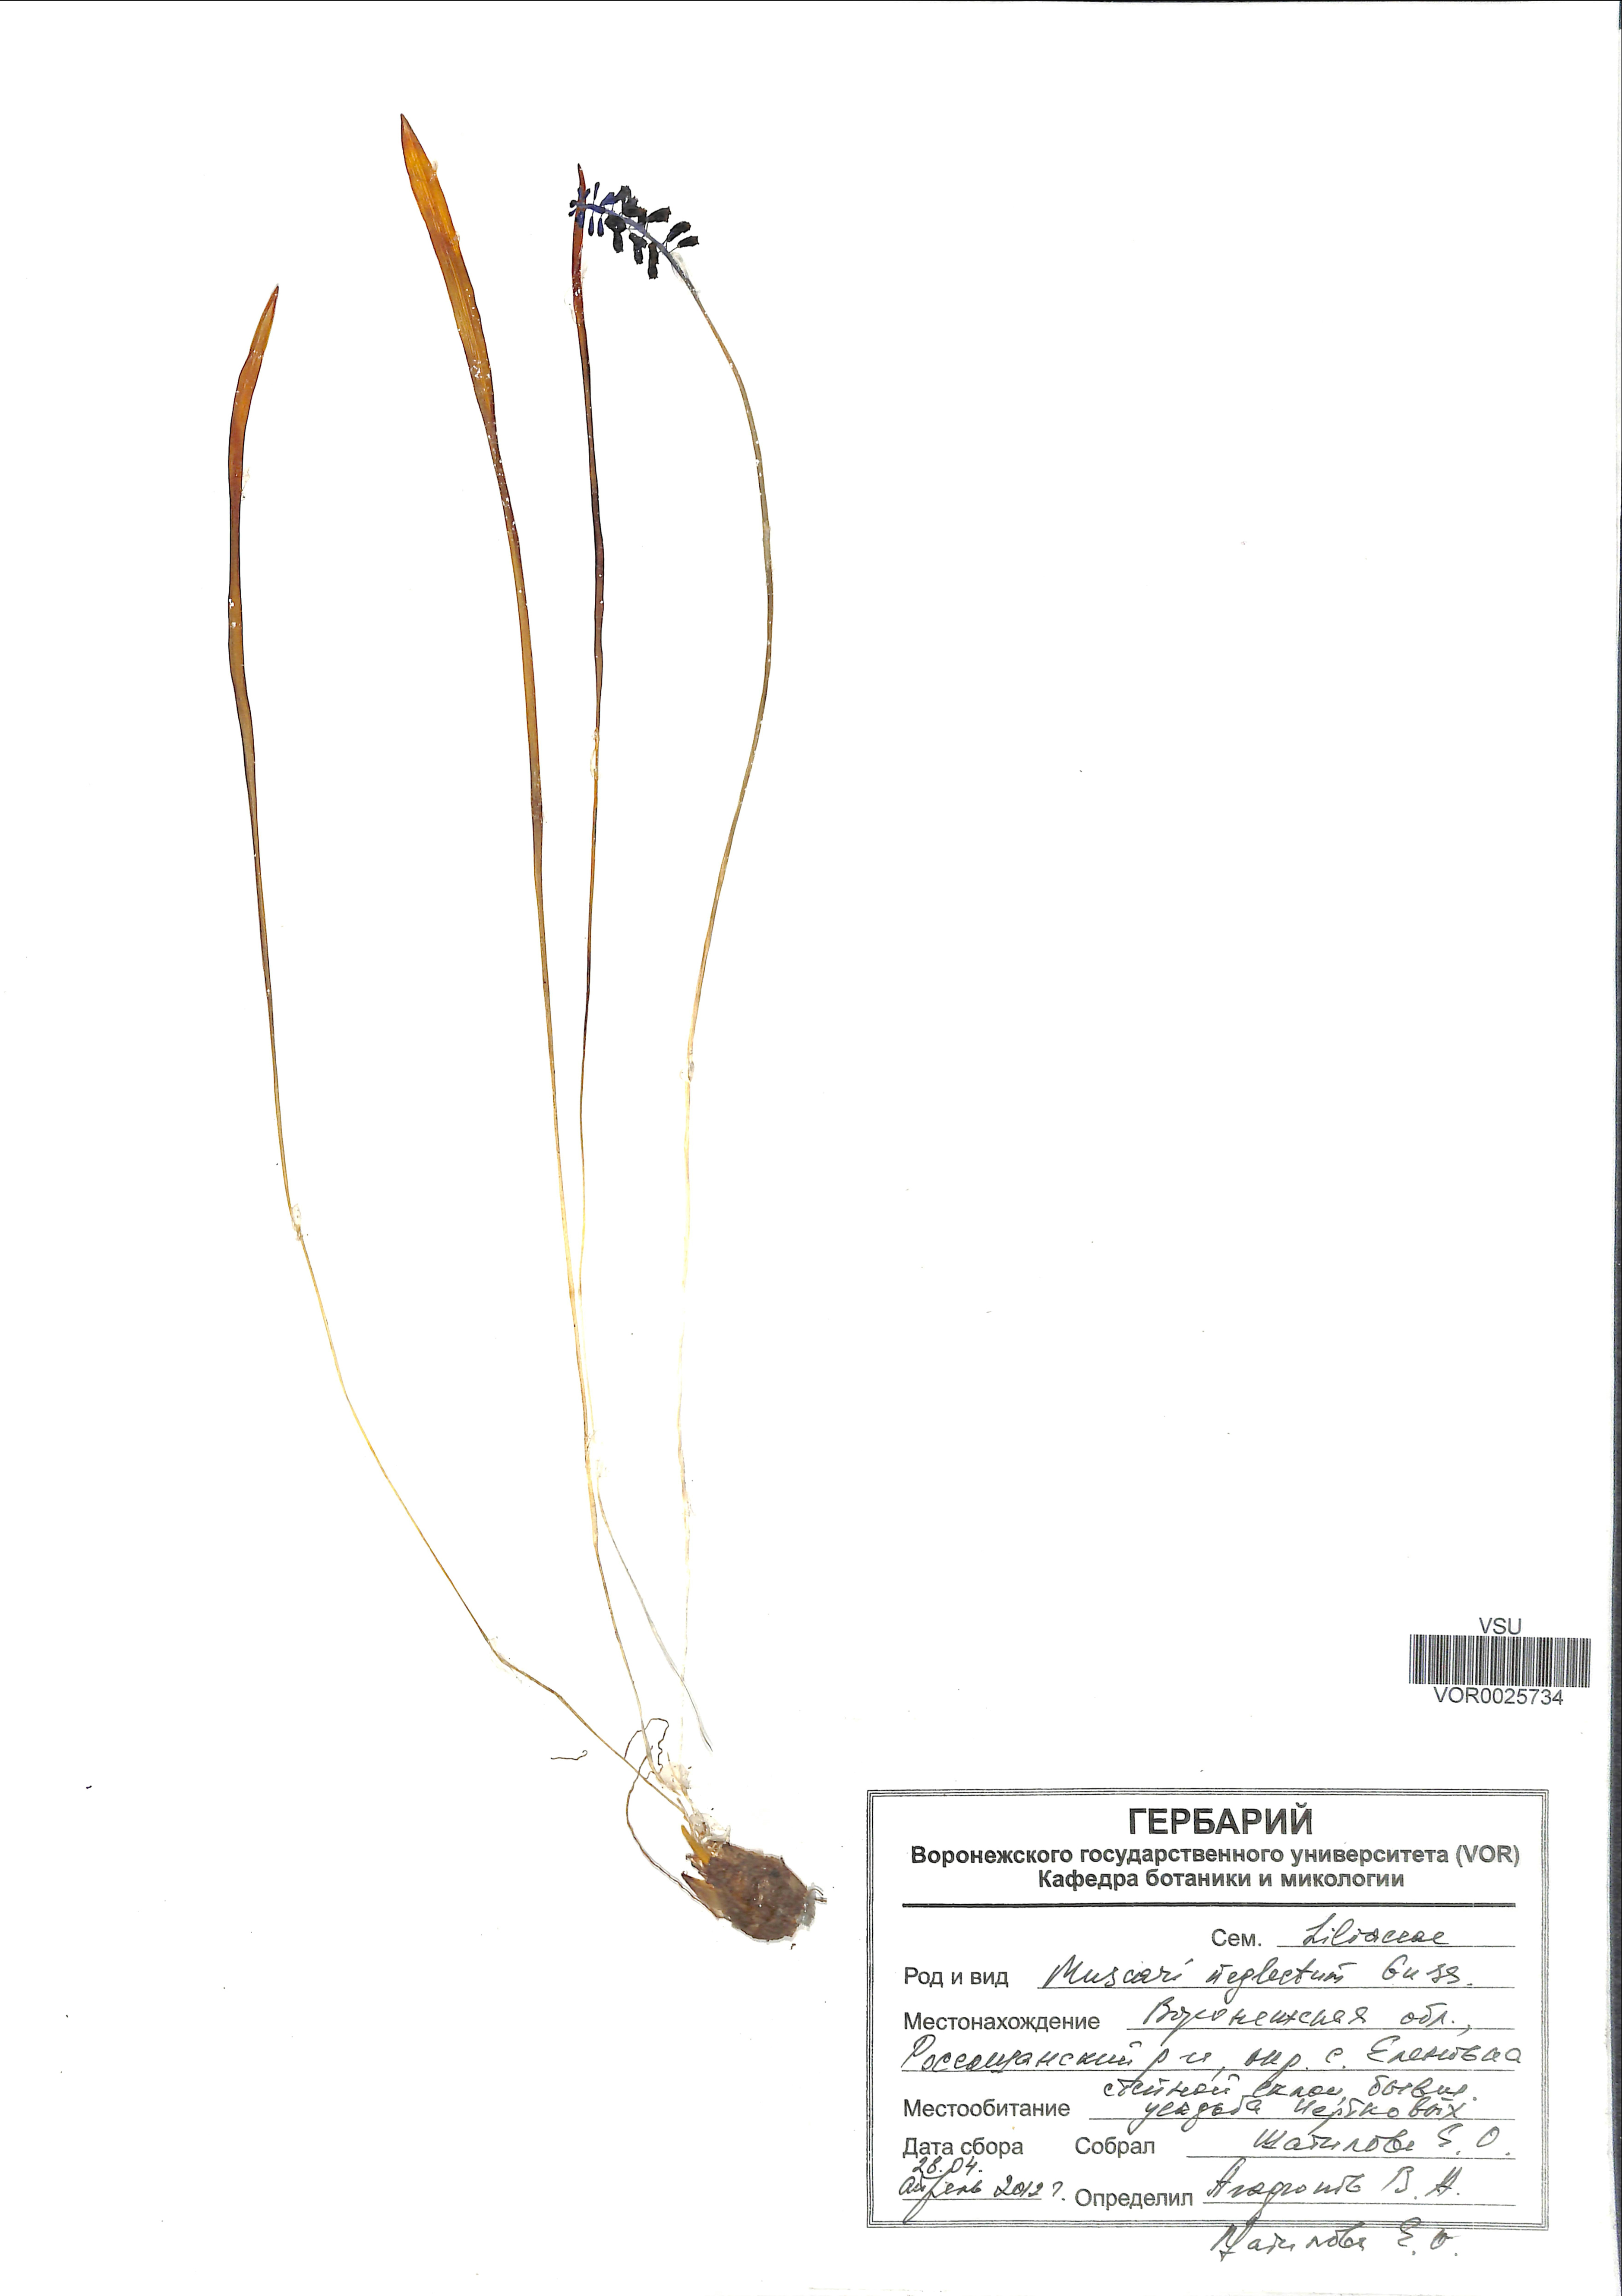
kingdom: Plantae
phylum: Tracheophyta
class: Liliopsida
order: Asparagales
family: Asparagaceae
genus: Muscari
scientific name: Muscari neglectum
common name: Grape-hyacinth
